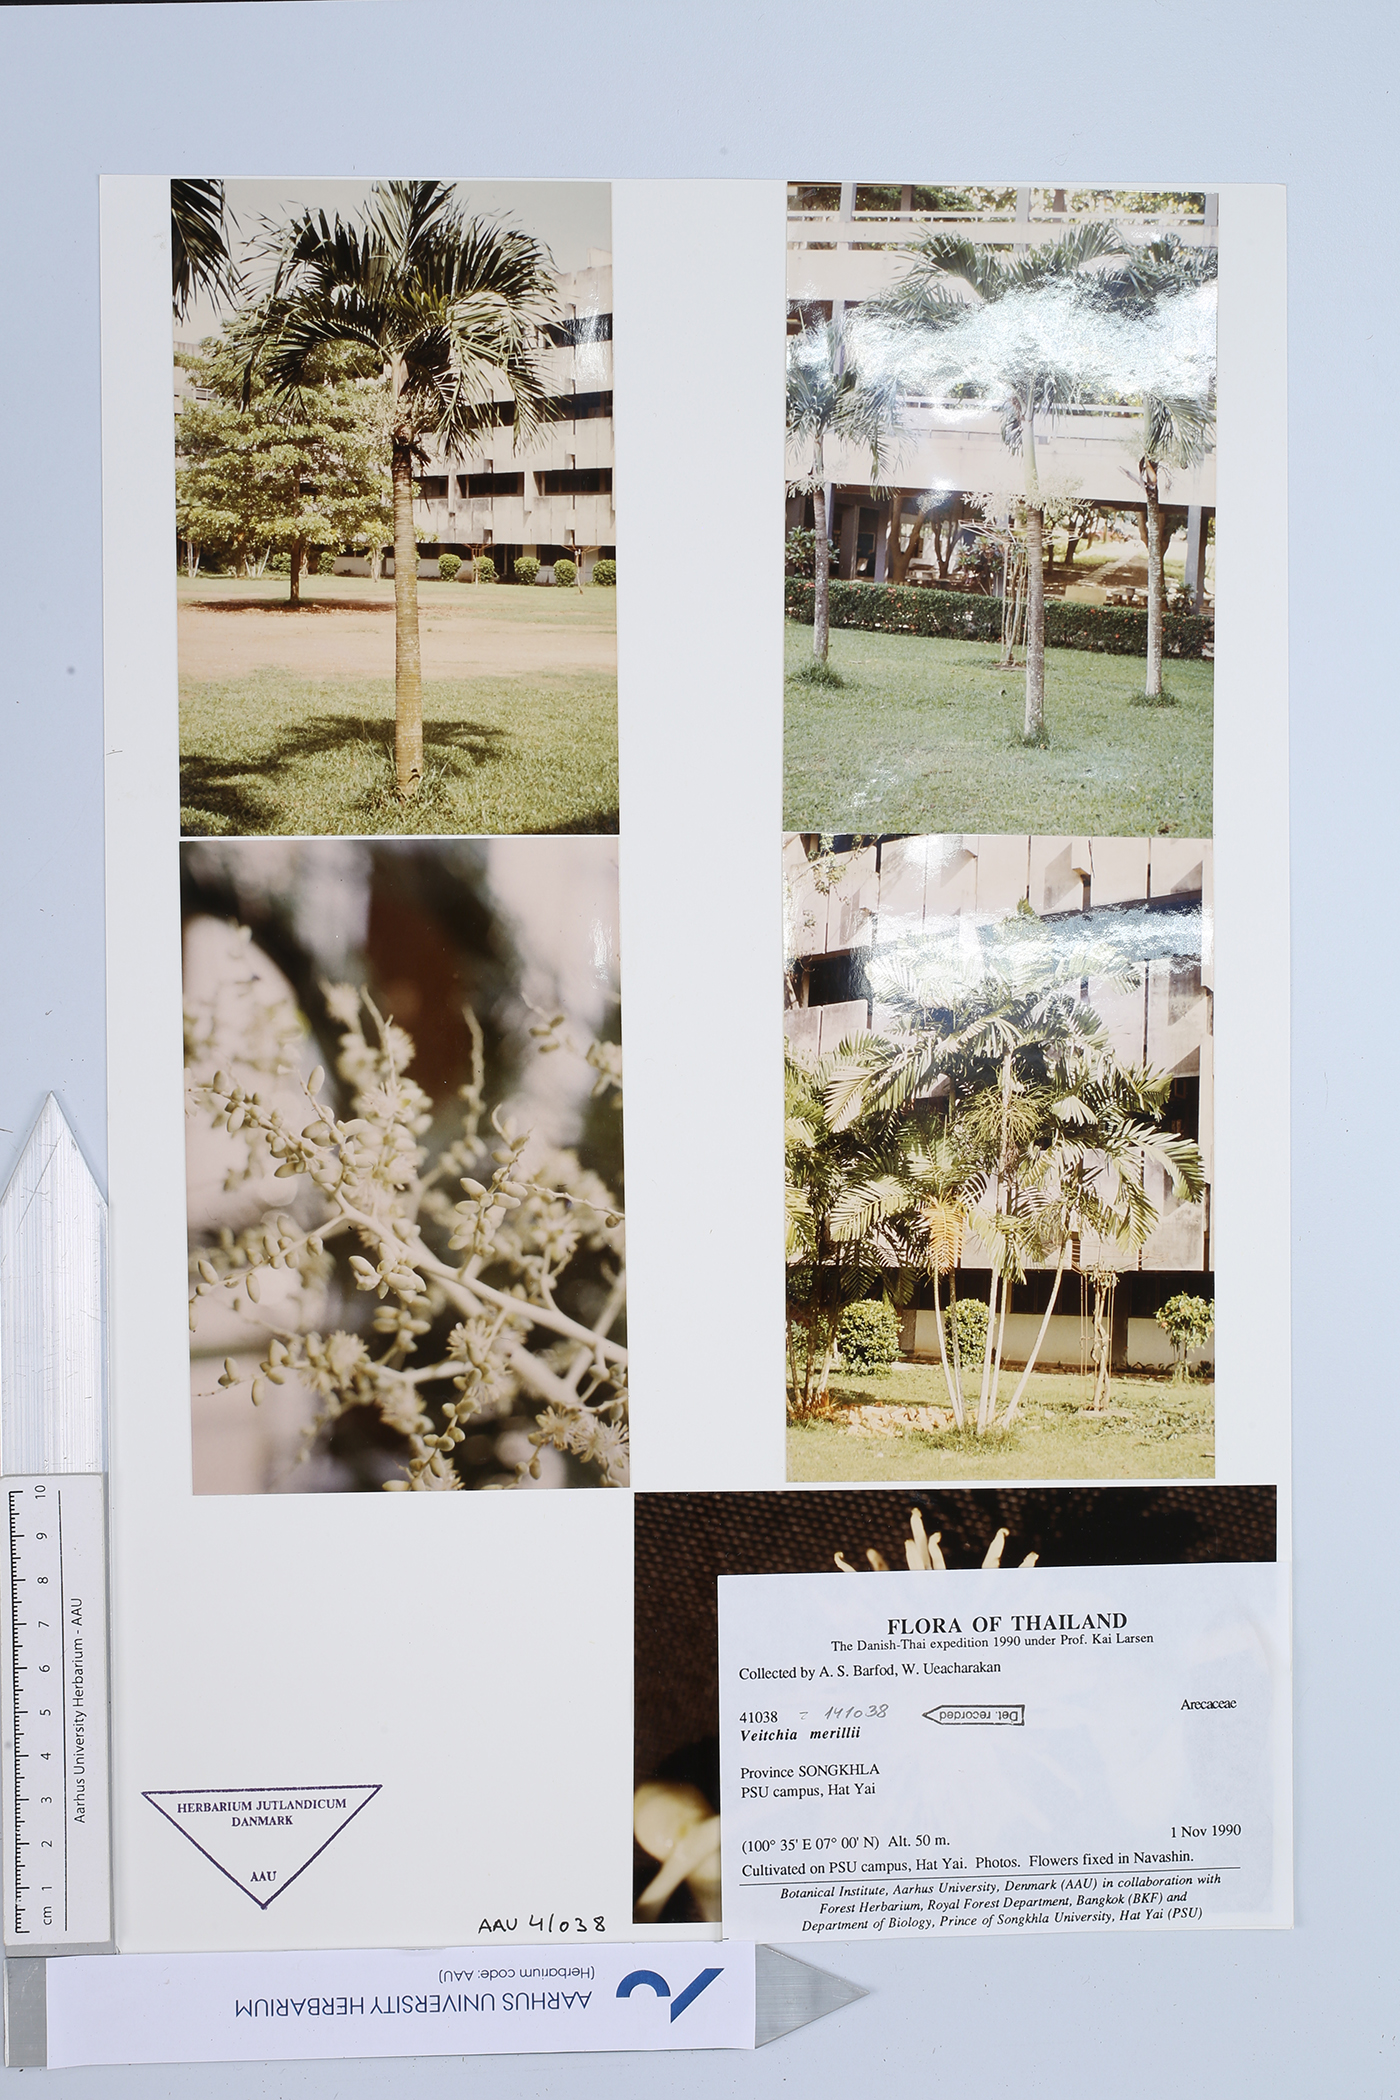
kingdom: Plantae
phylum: Tracheophyta
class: Liliopsida
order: Arecales
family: Arecaceae
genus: Adonidia
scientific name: Adonidia merrillii
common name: Manila palm
